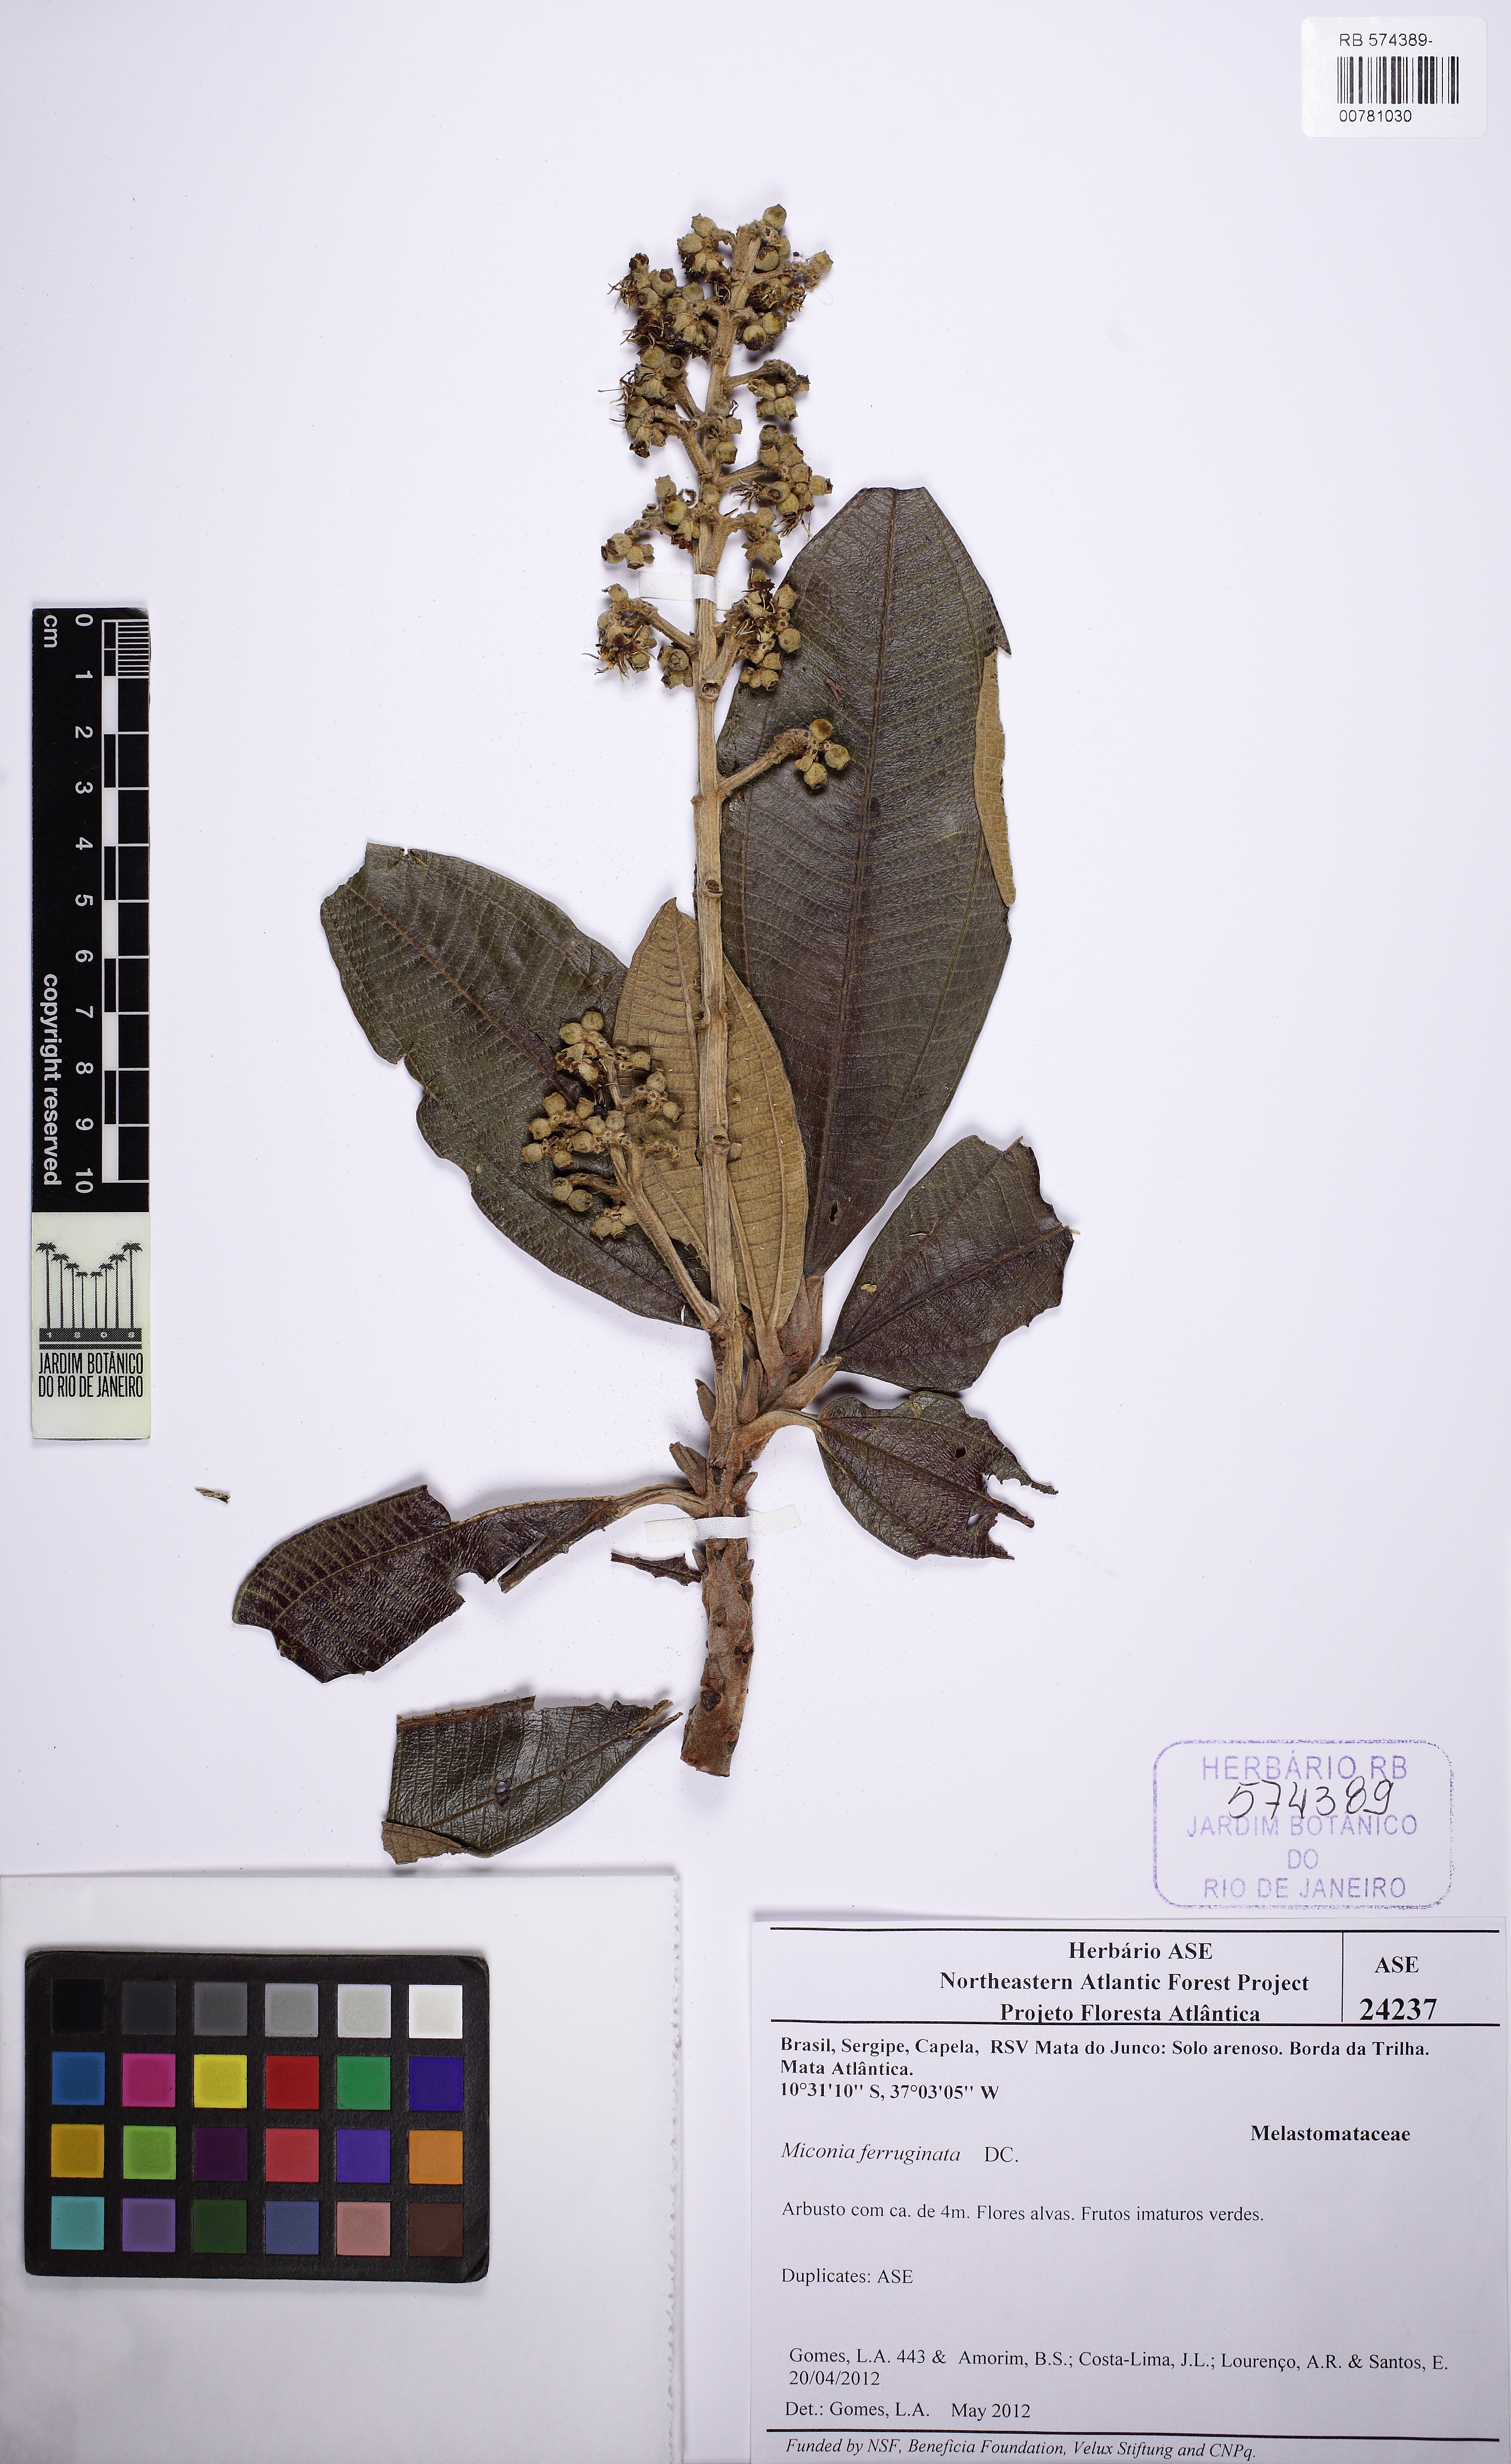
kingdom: Plantae
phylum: Tracheophyta
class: Magnoliopsida
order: Myrtales
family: Melastomataceae
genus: Miconia
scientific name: Miconia ferruginata
